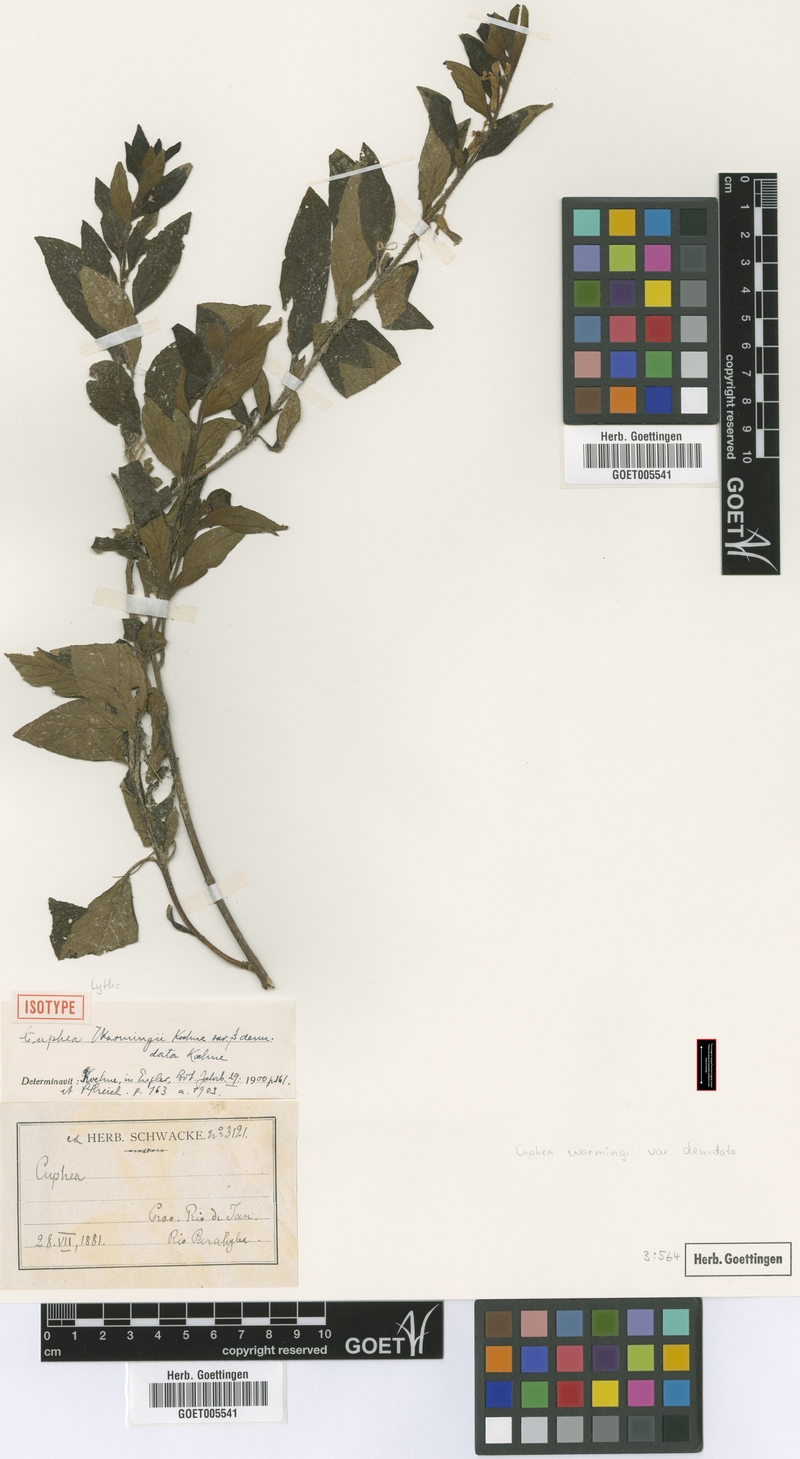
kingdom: Plantae
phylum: Tracheophyta
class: Magnoliopsida
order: Myrtales
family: Lythraceae
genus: Cuphea
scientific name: Cuphea warmingii
